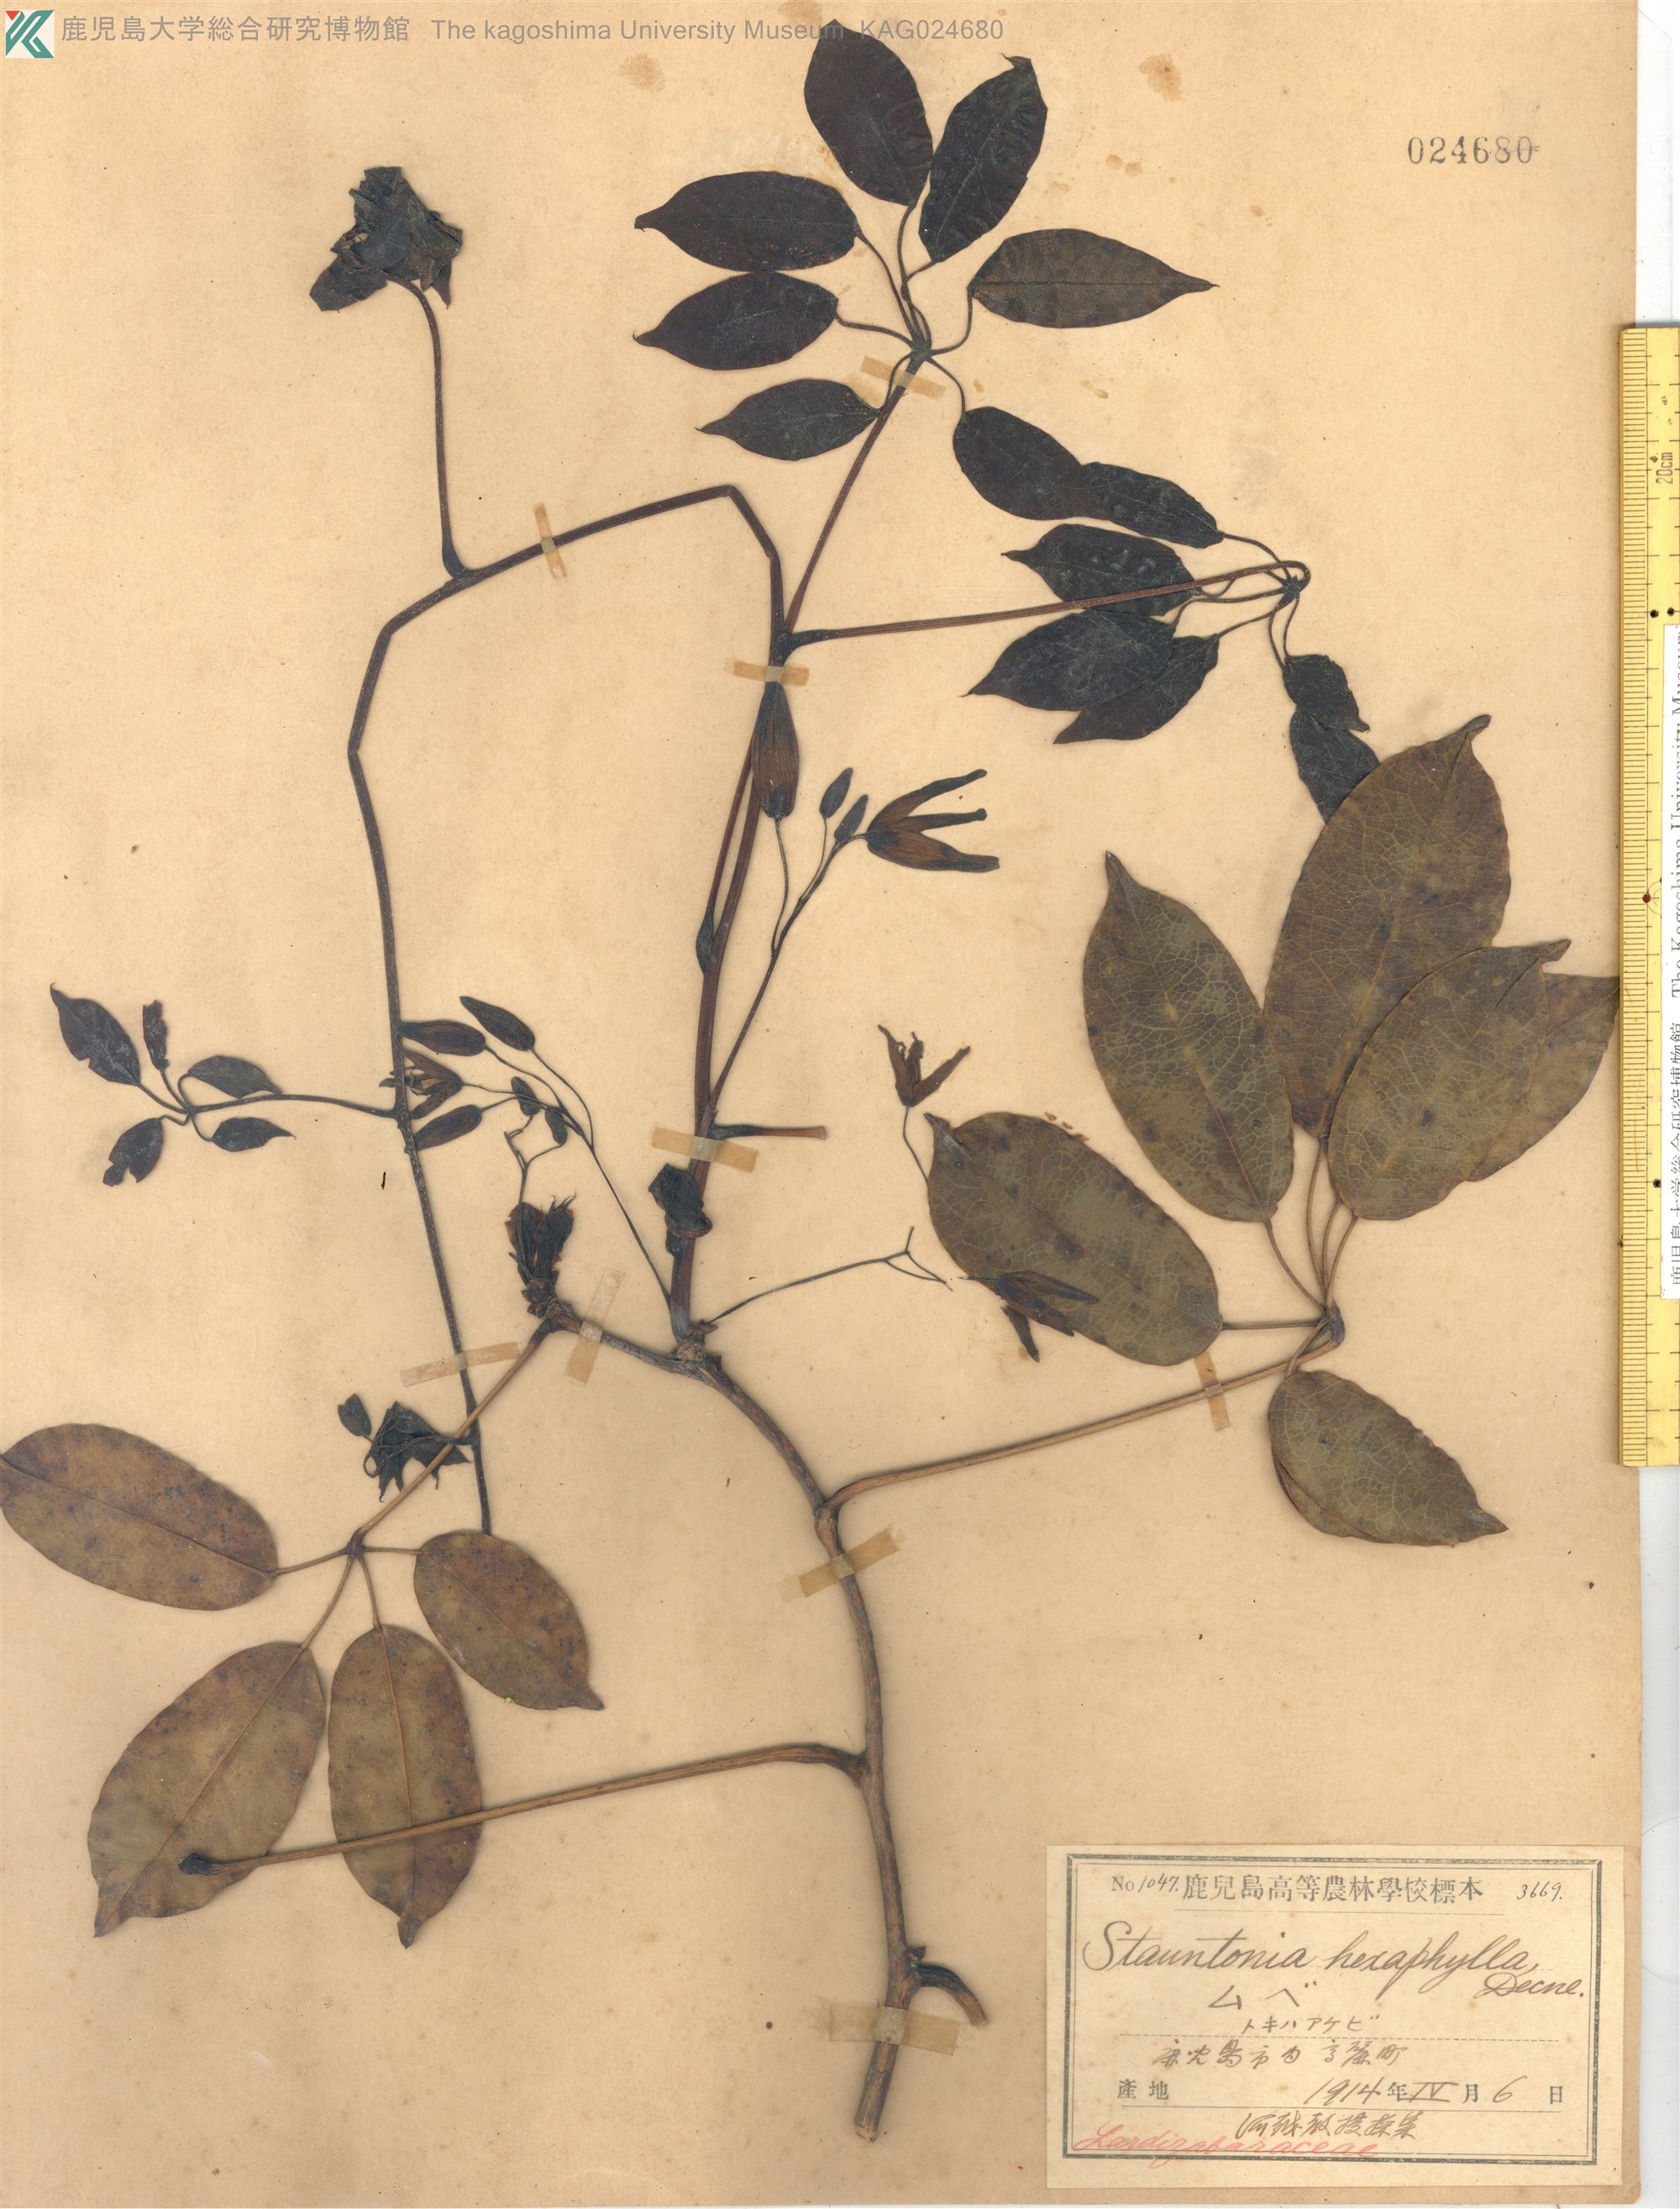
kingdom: Plantae
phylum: Tracheophyta
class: Magnoliopsida
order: Ranunculales
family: Lardizabalaceae
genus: Stauntonia
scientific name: Stauntonia hexaphylla
